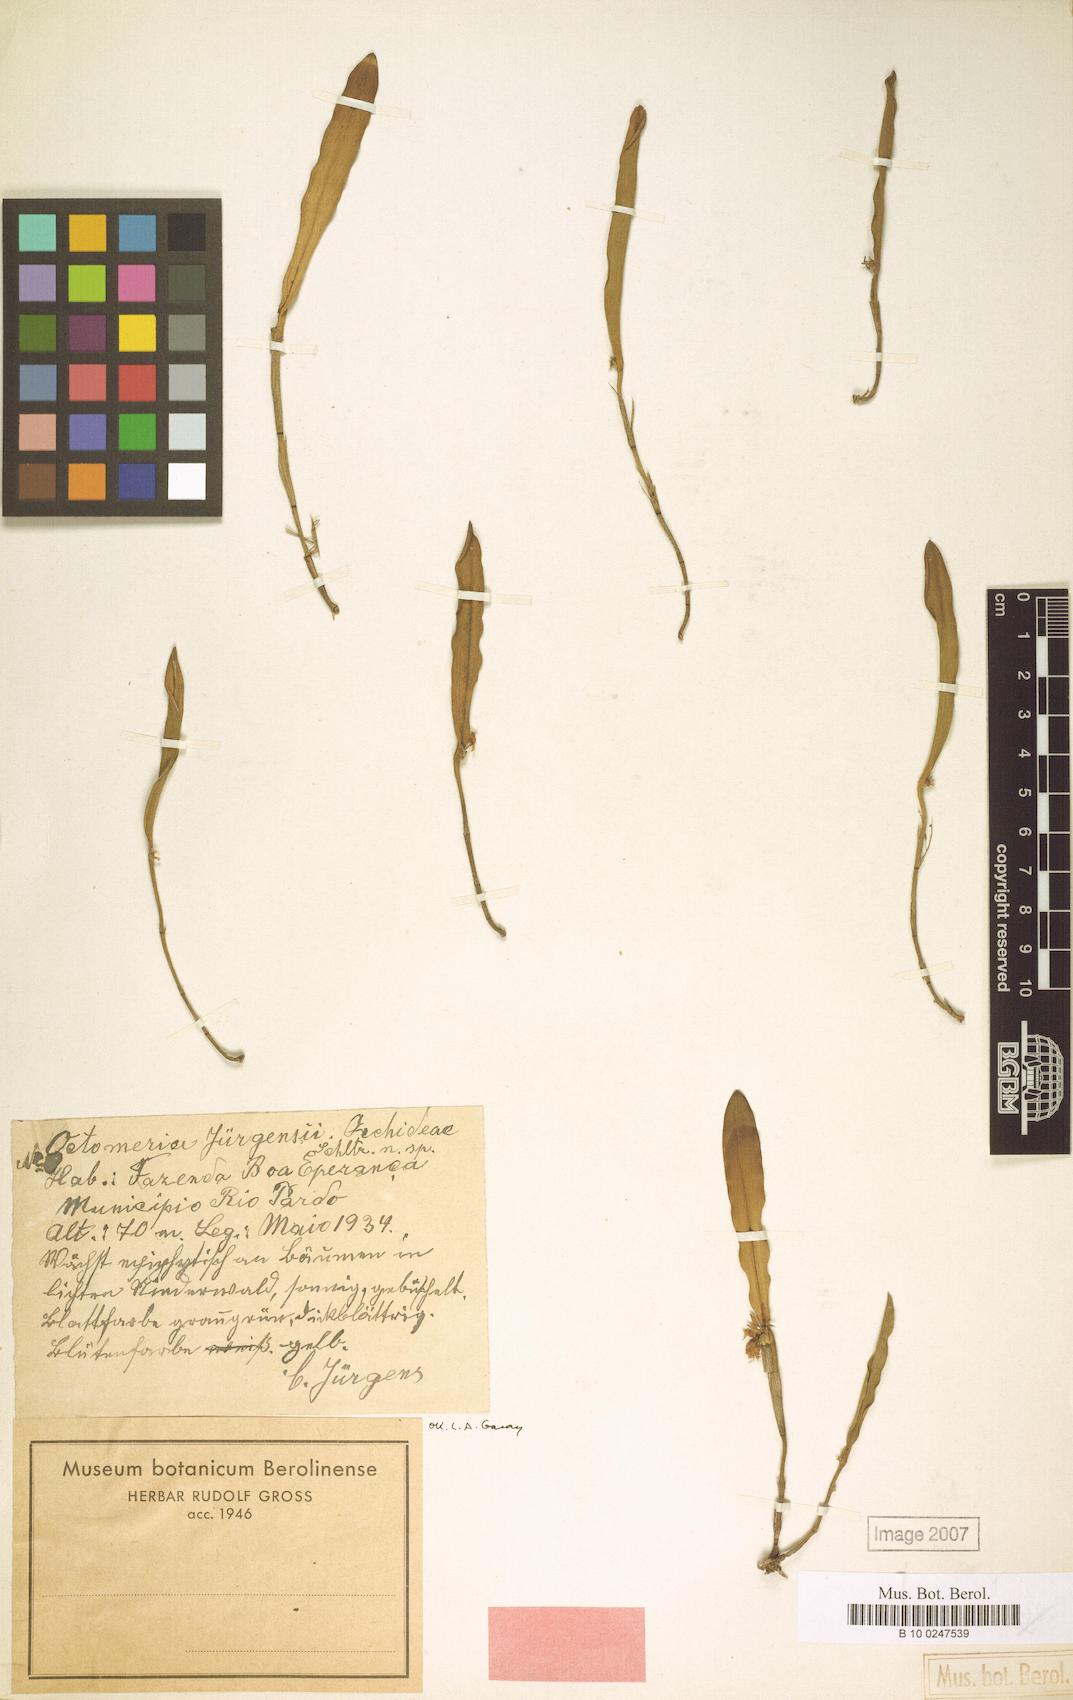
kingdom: Plantae
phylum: Tracheophyta
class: Liliopsida
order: Asparagales
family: Orchidaceae
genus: Octomeria
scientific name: Octomeria juergensii
